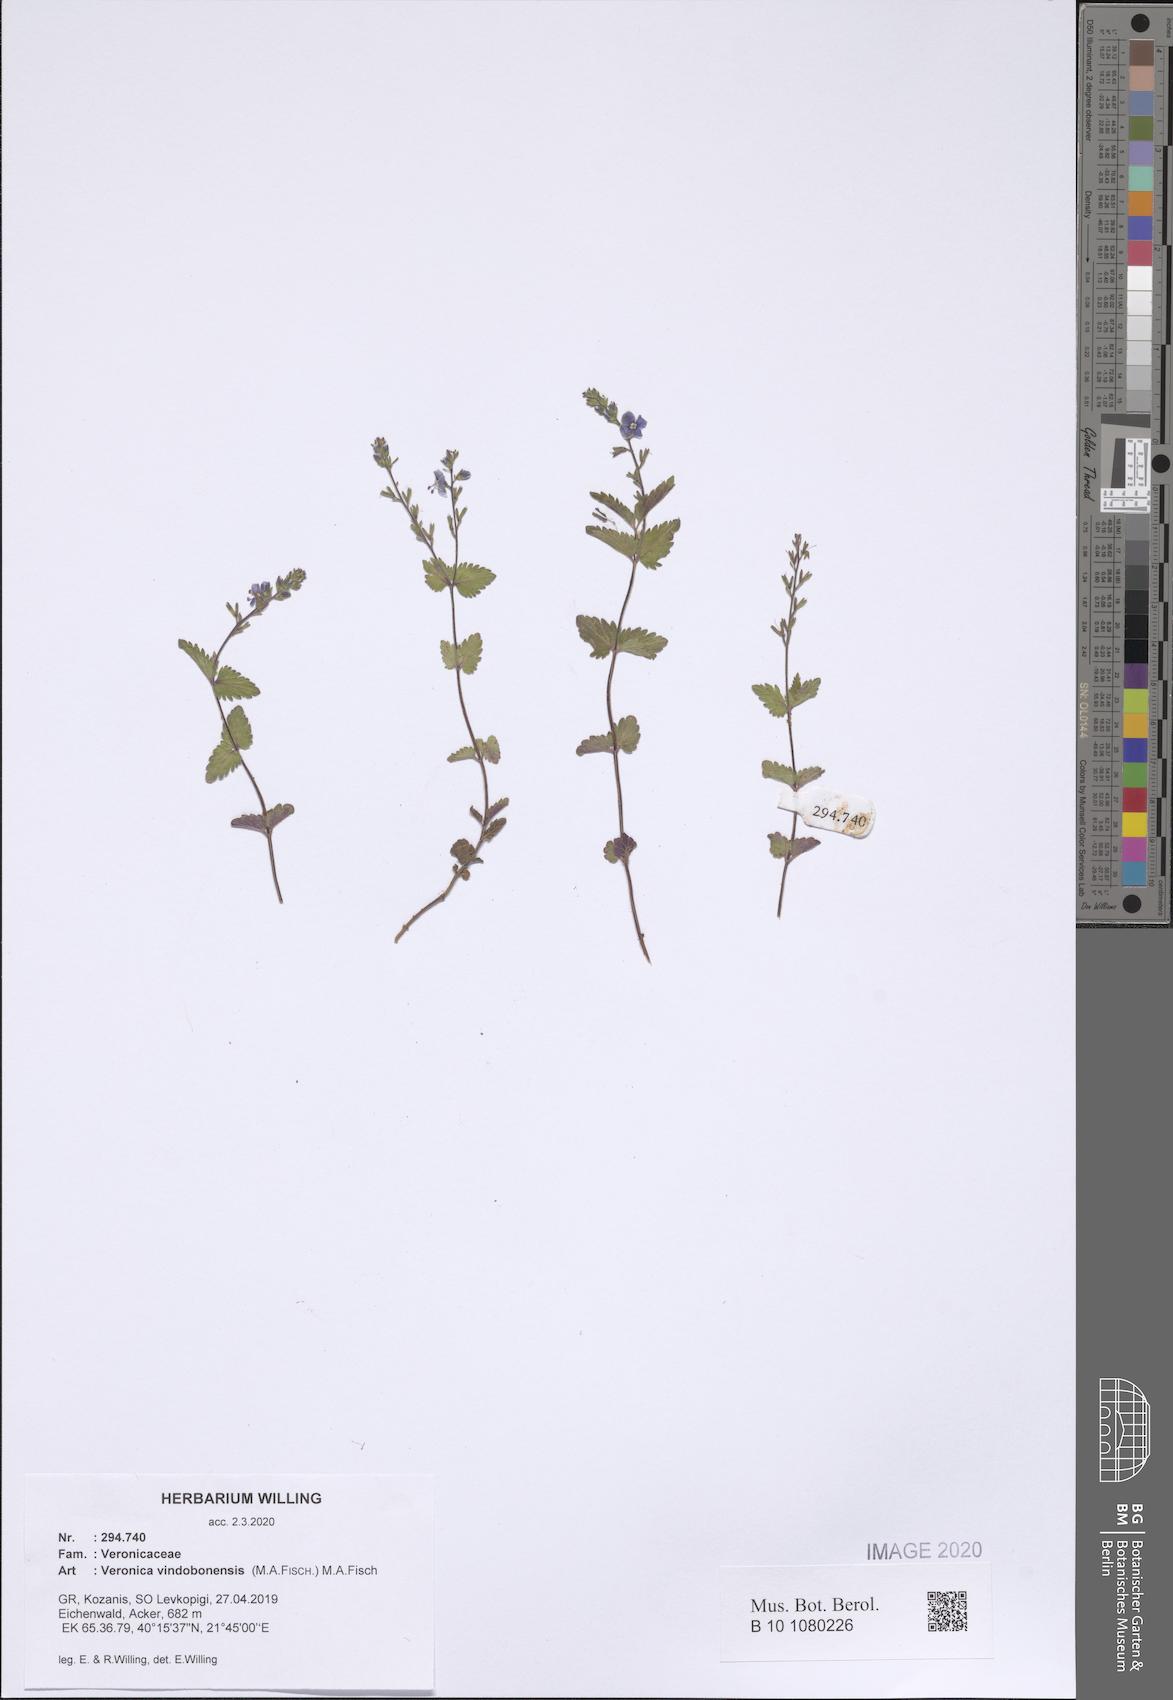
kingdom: Plantae
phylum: Tracheophyta
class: Magnoliopsida
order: Lamiales
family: Plantaginaceae
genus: Veronica
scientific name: Veronica vindobonensis
